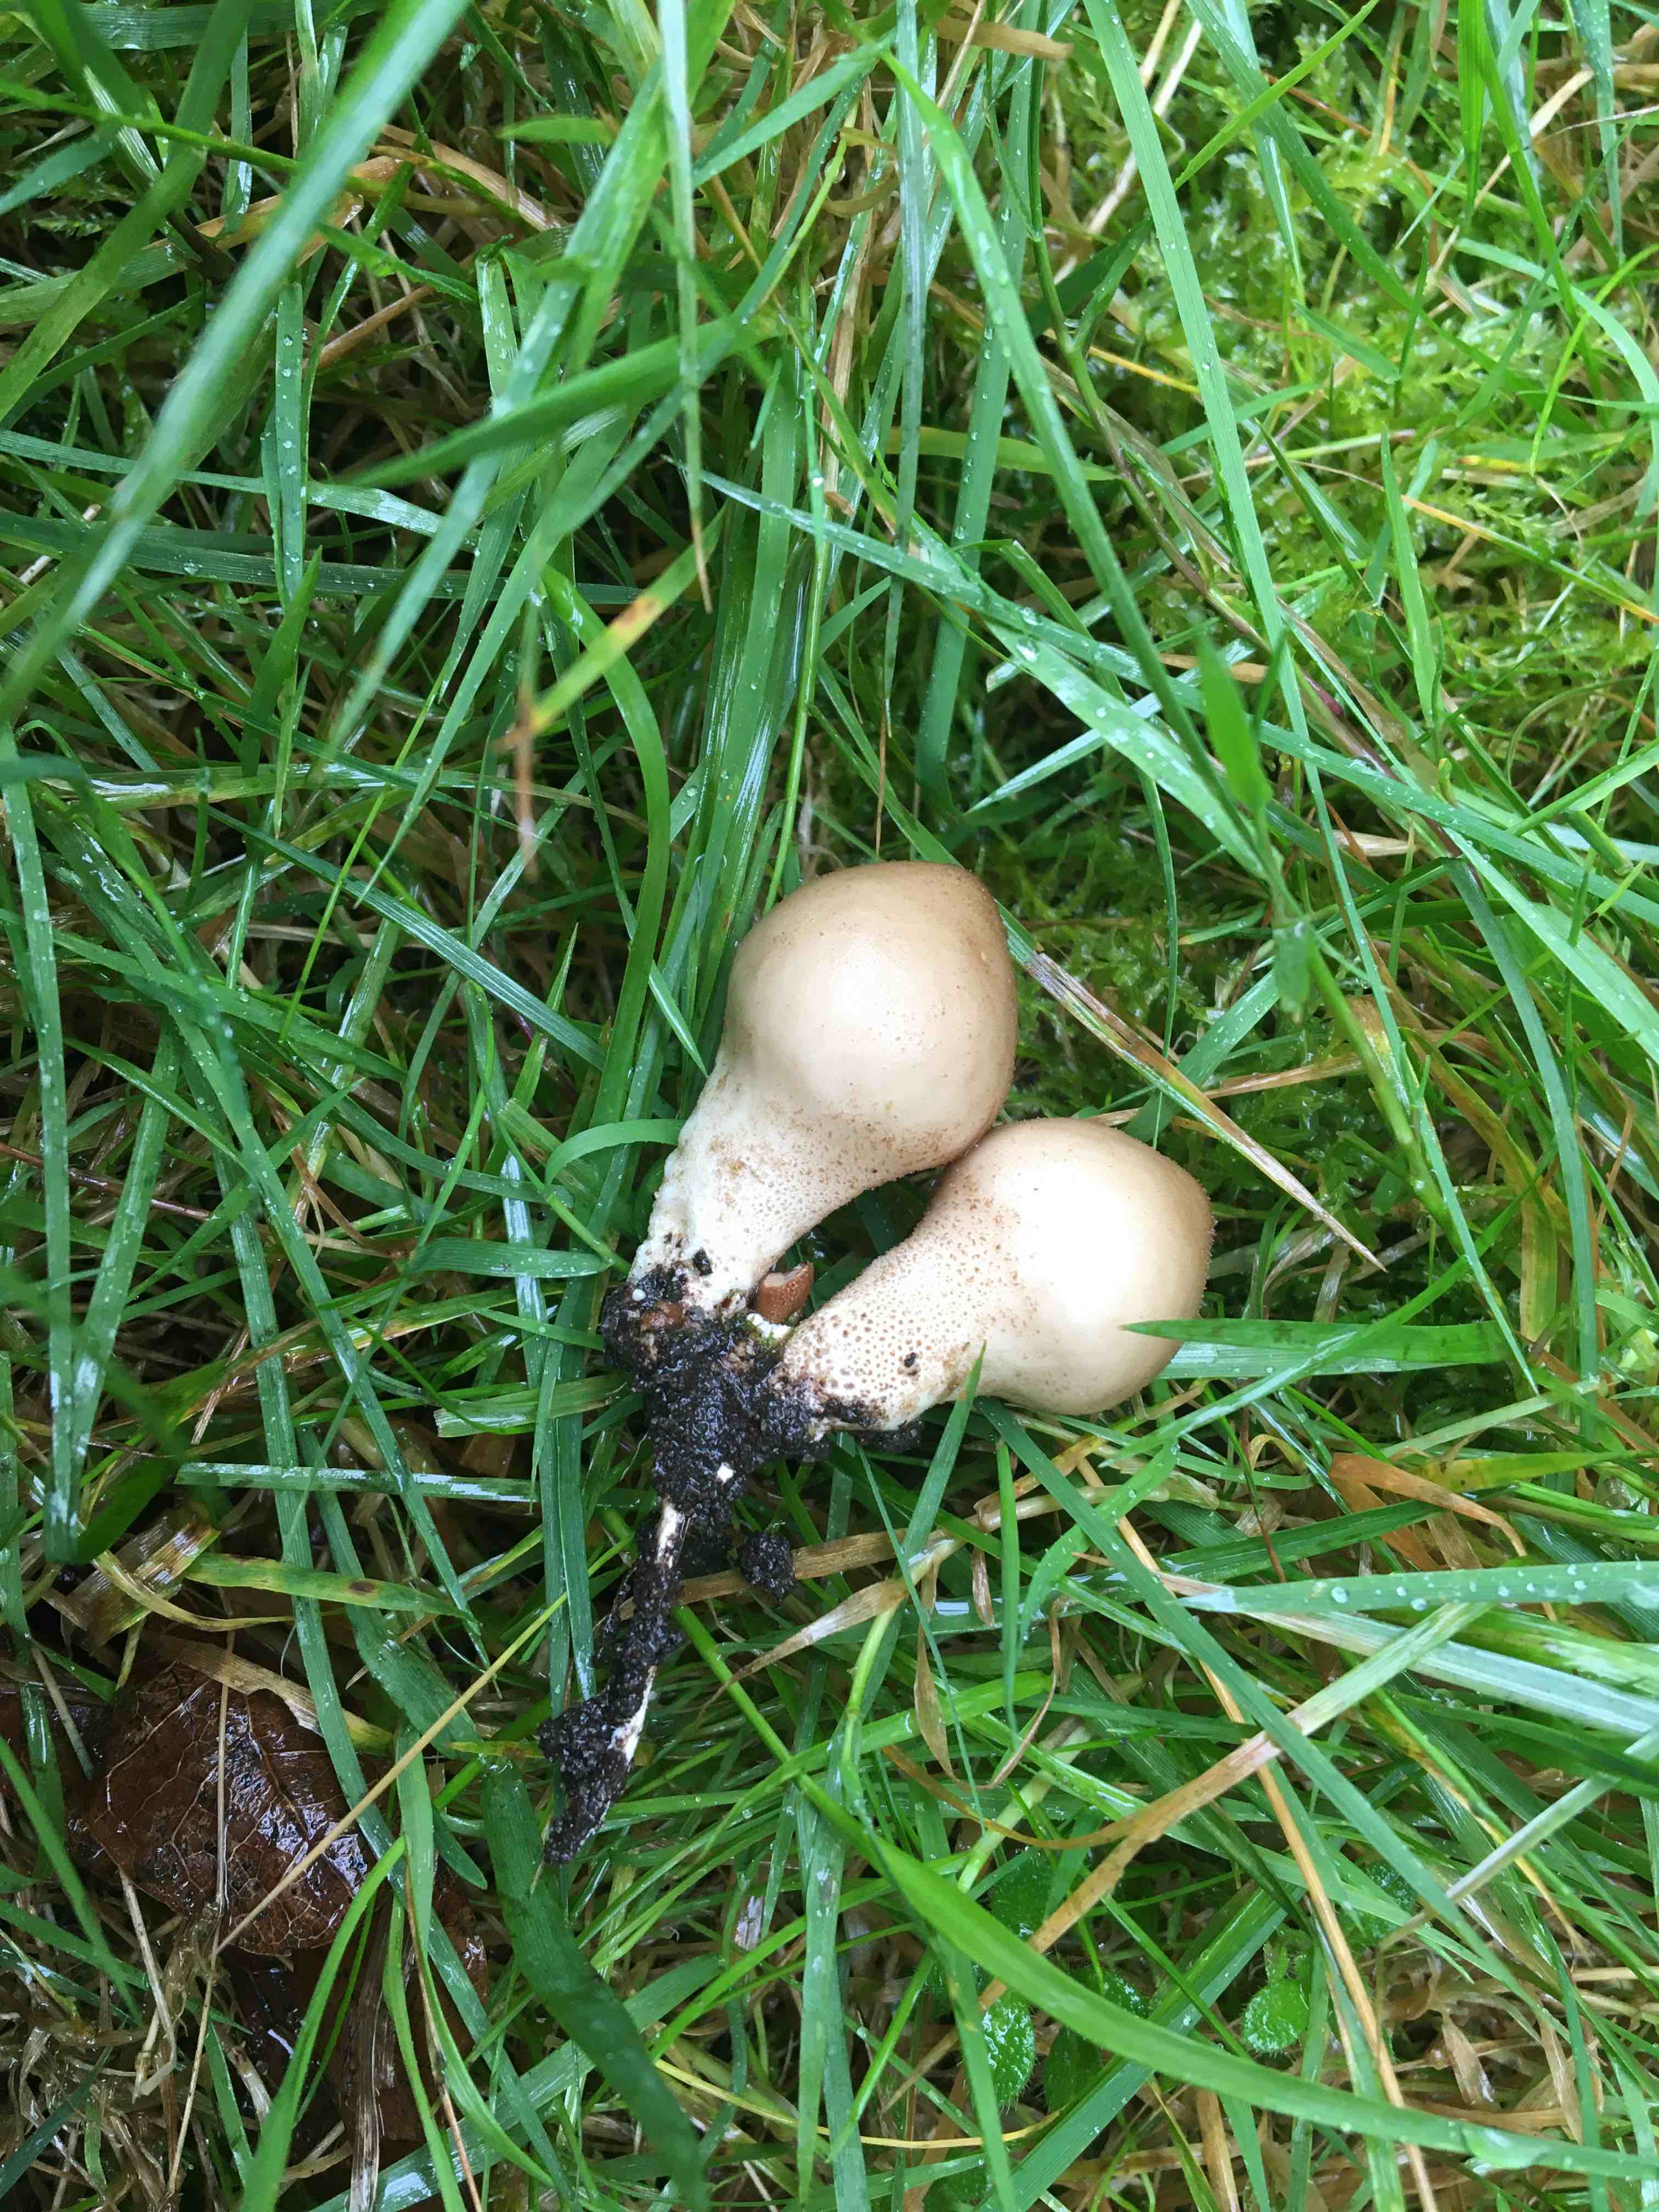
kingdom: Fungi
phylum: Basidiomycota
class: Agaricomycetes
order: Agaricales
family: Lycoperdaceae
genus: Apioperdon
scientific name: Apioperdon pyriforme
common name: pære-støvbold
